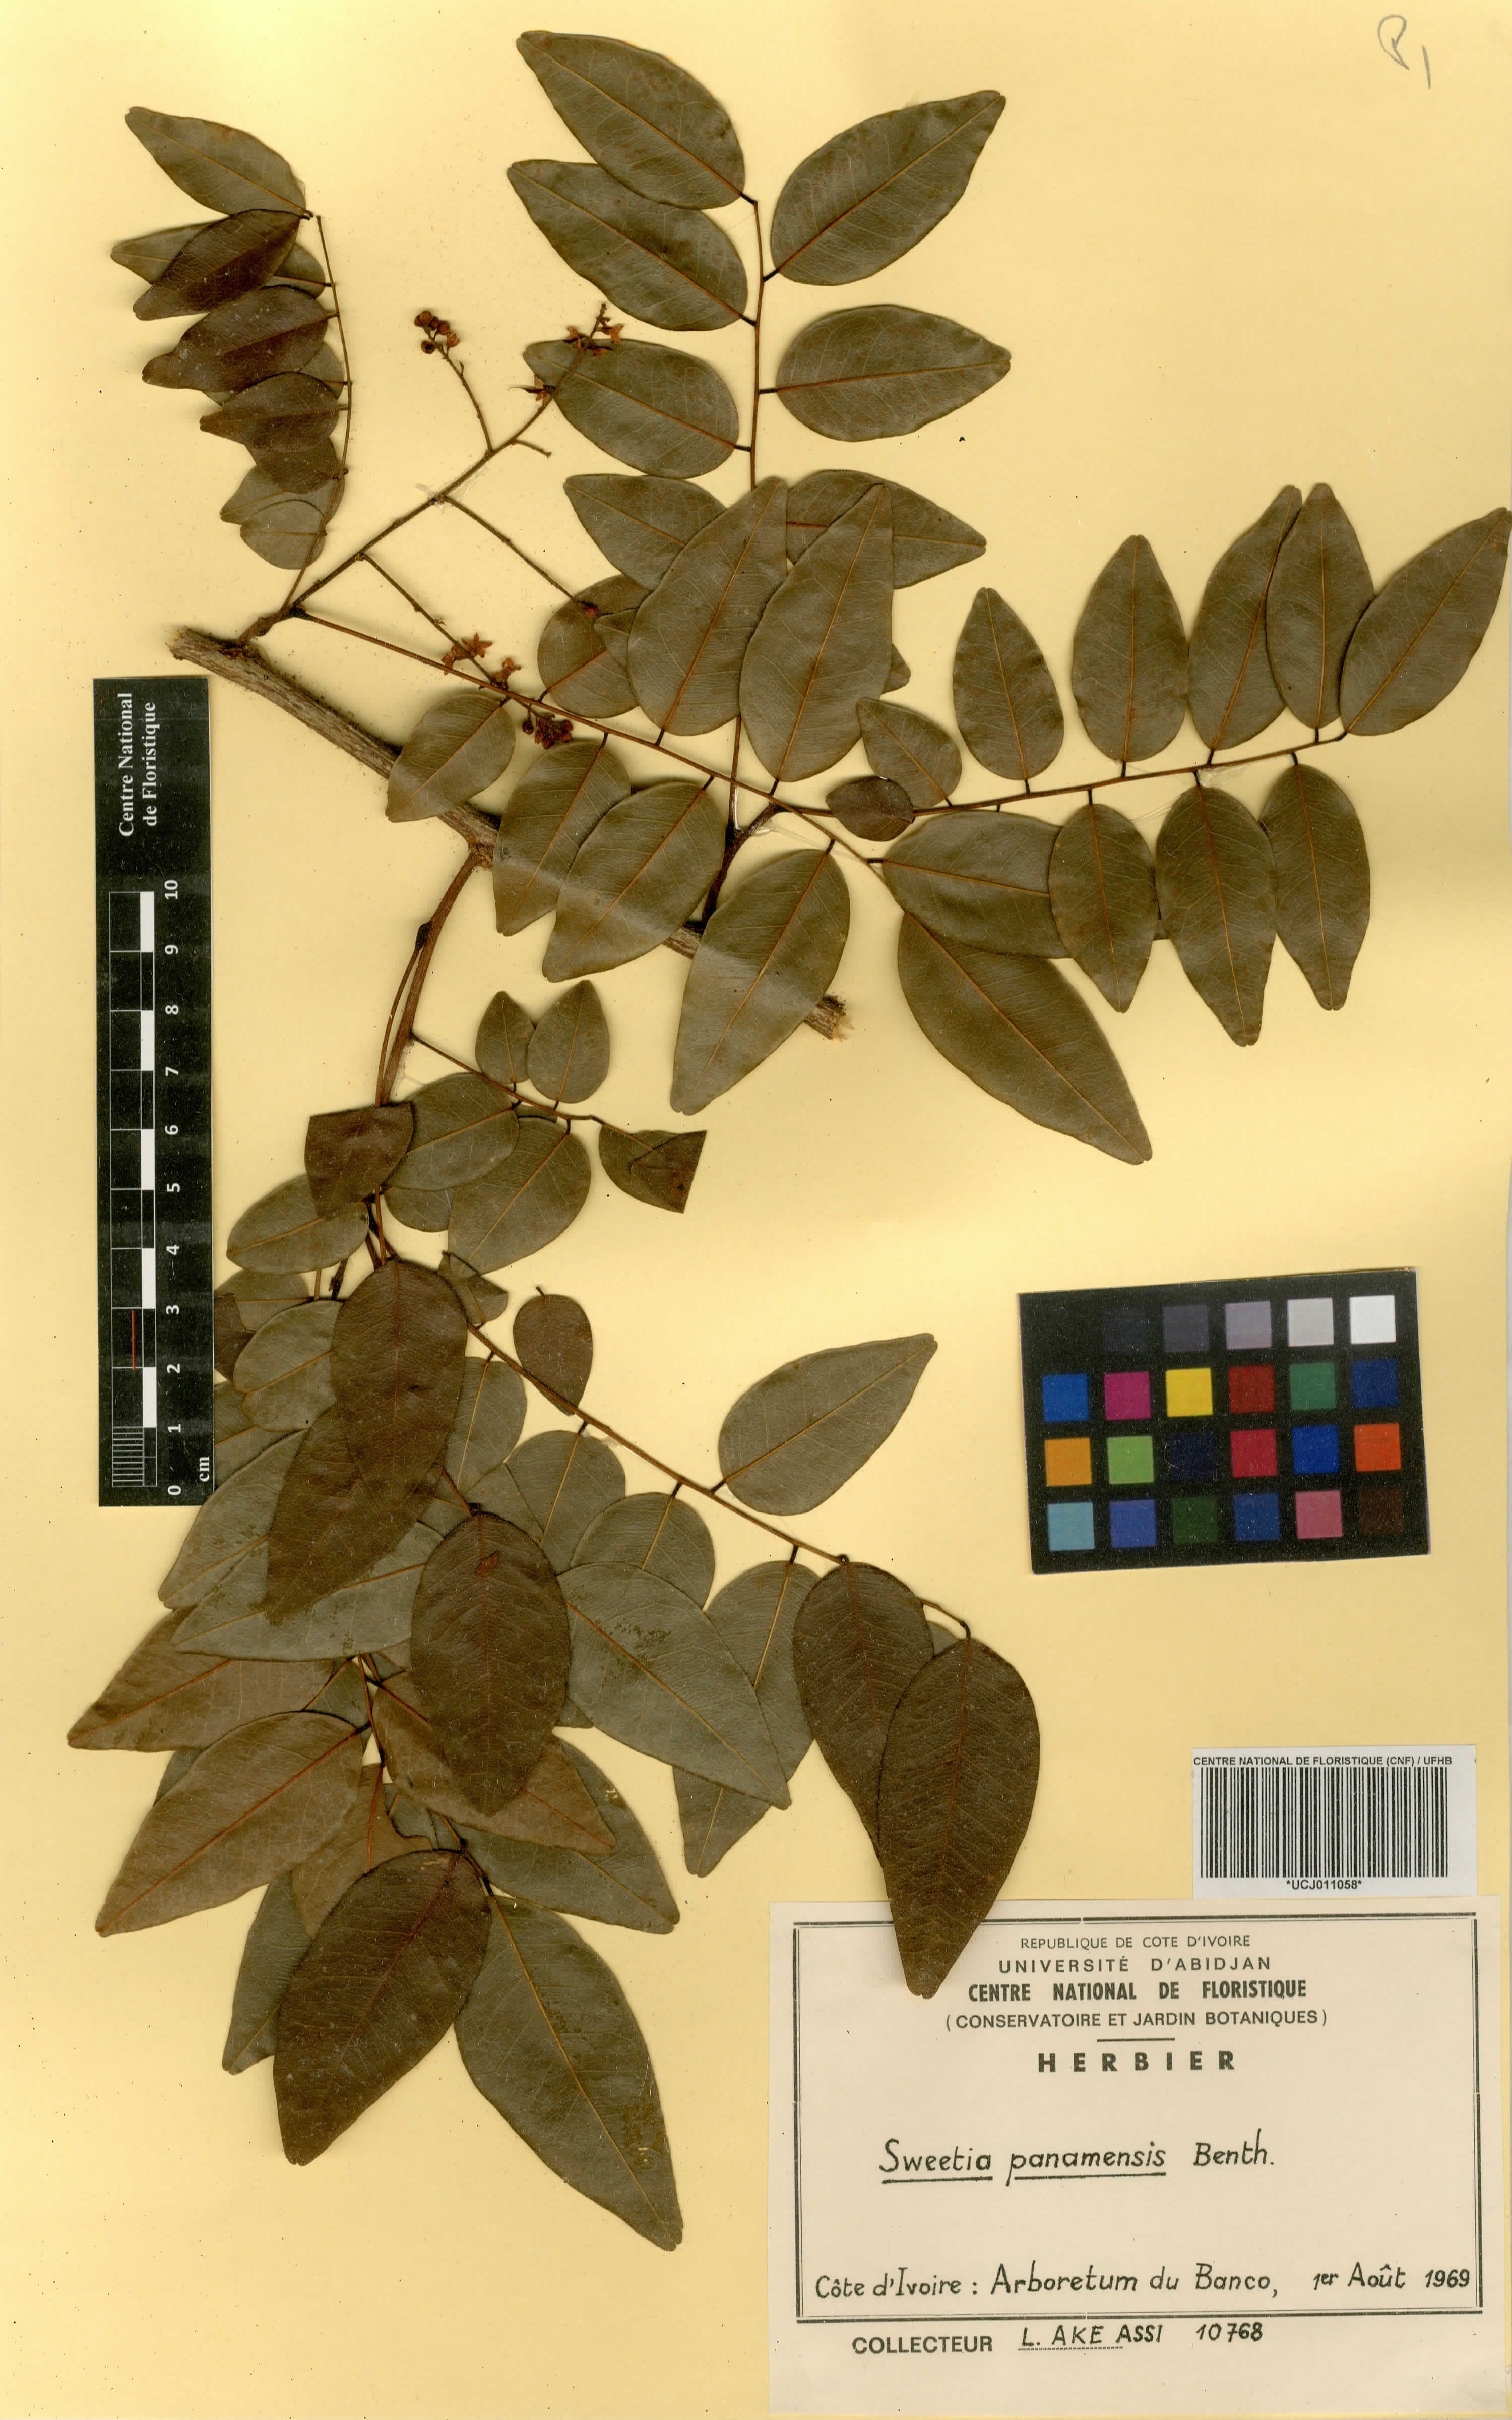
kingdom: Plantae
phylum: Tracheophyta
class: Magnoliopsida
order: Fabales
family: Fabaceae
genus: Leptolobium
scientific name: Leptolobium panamense
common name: Billy webb
